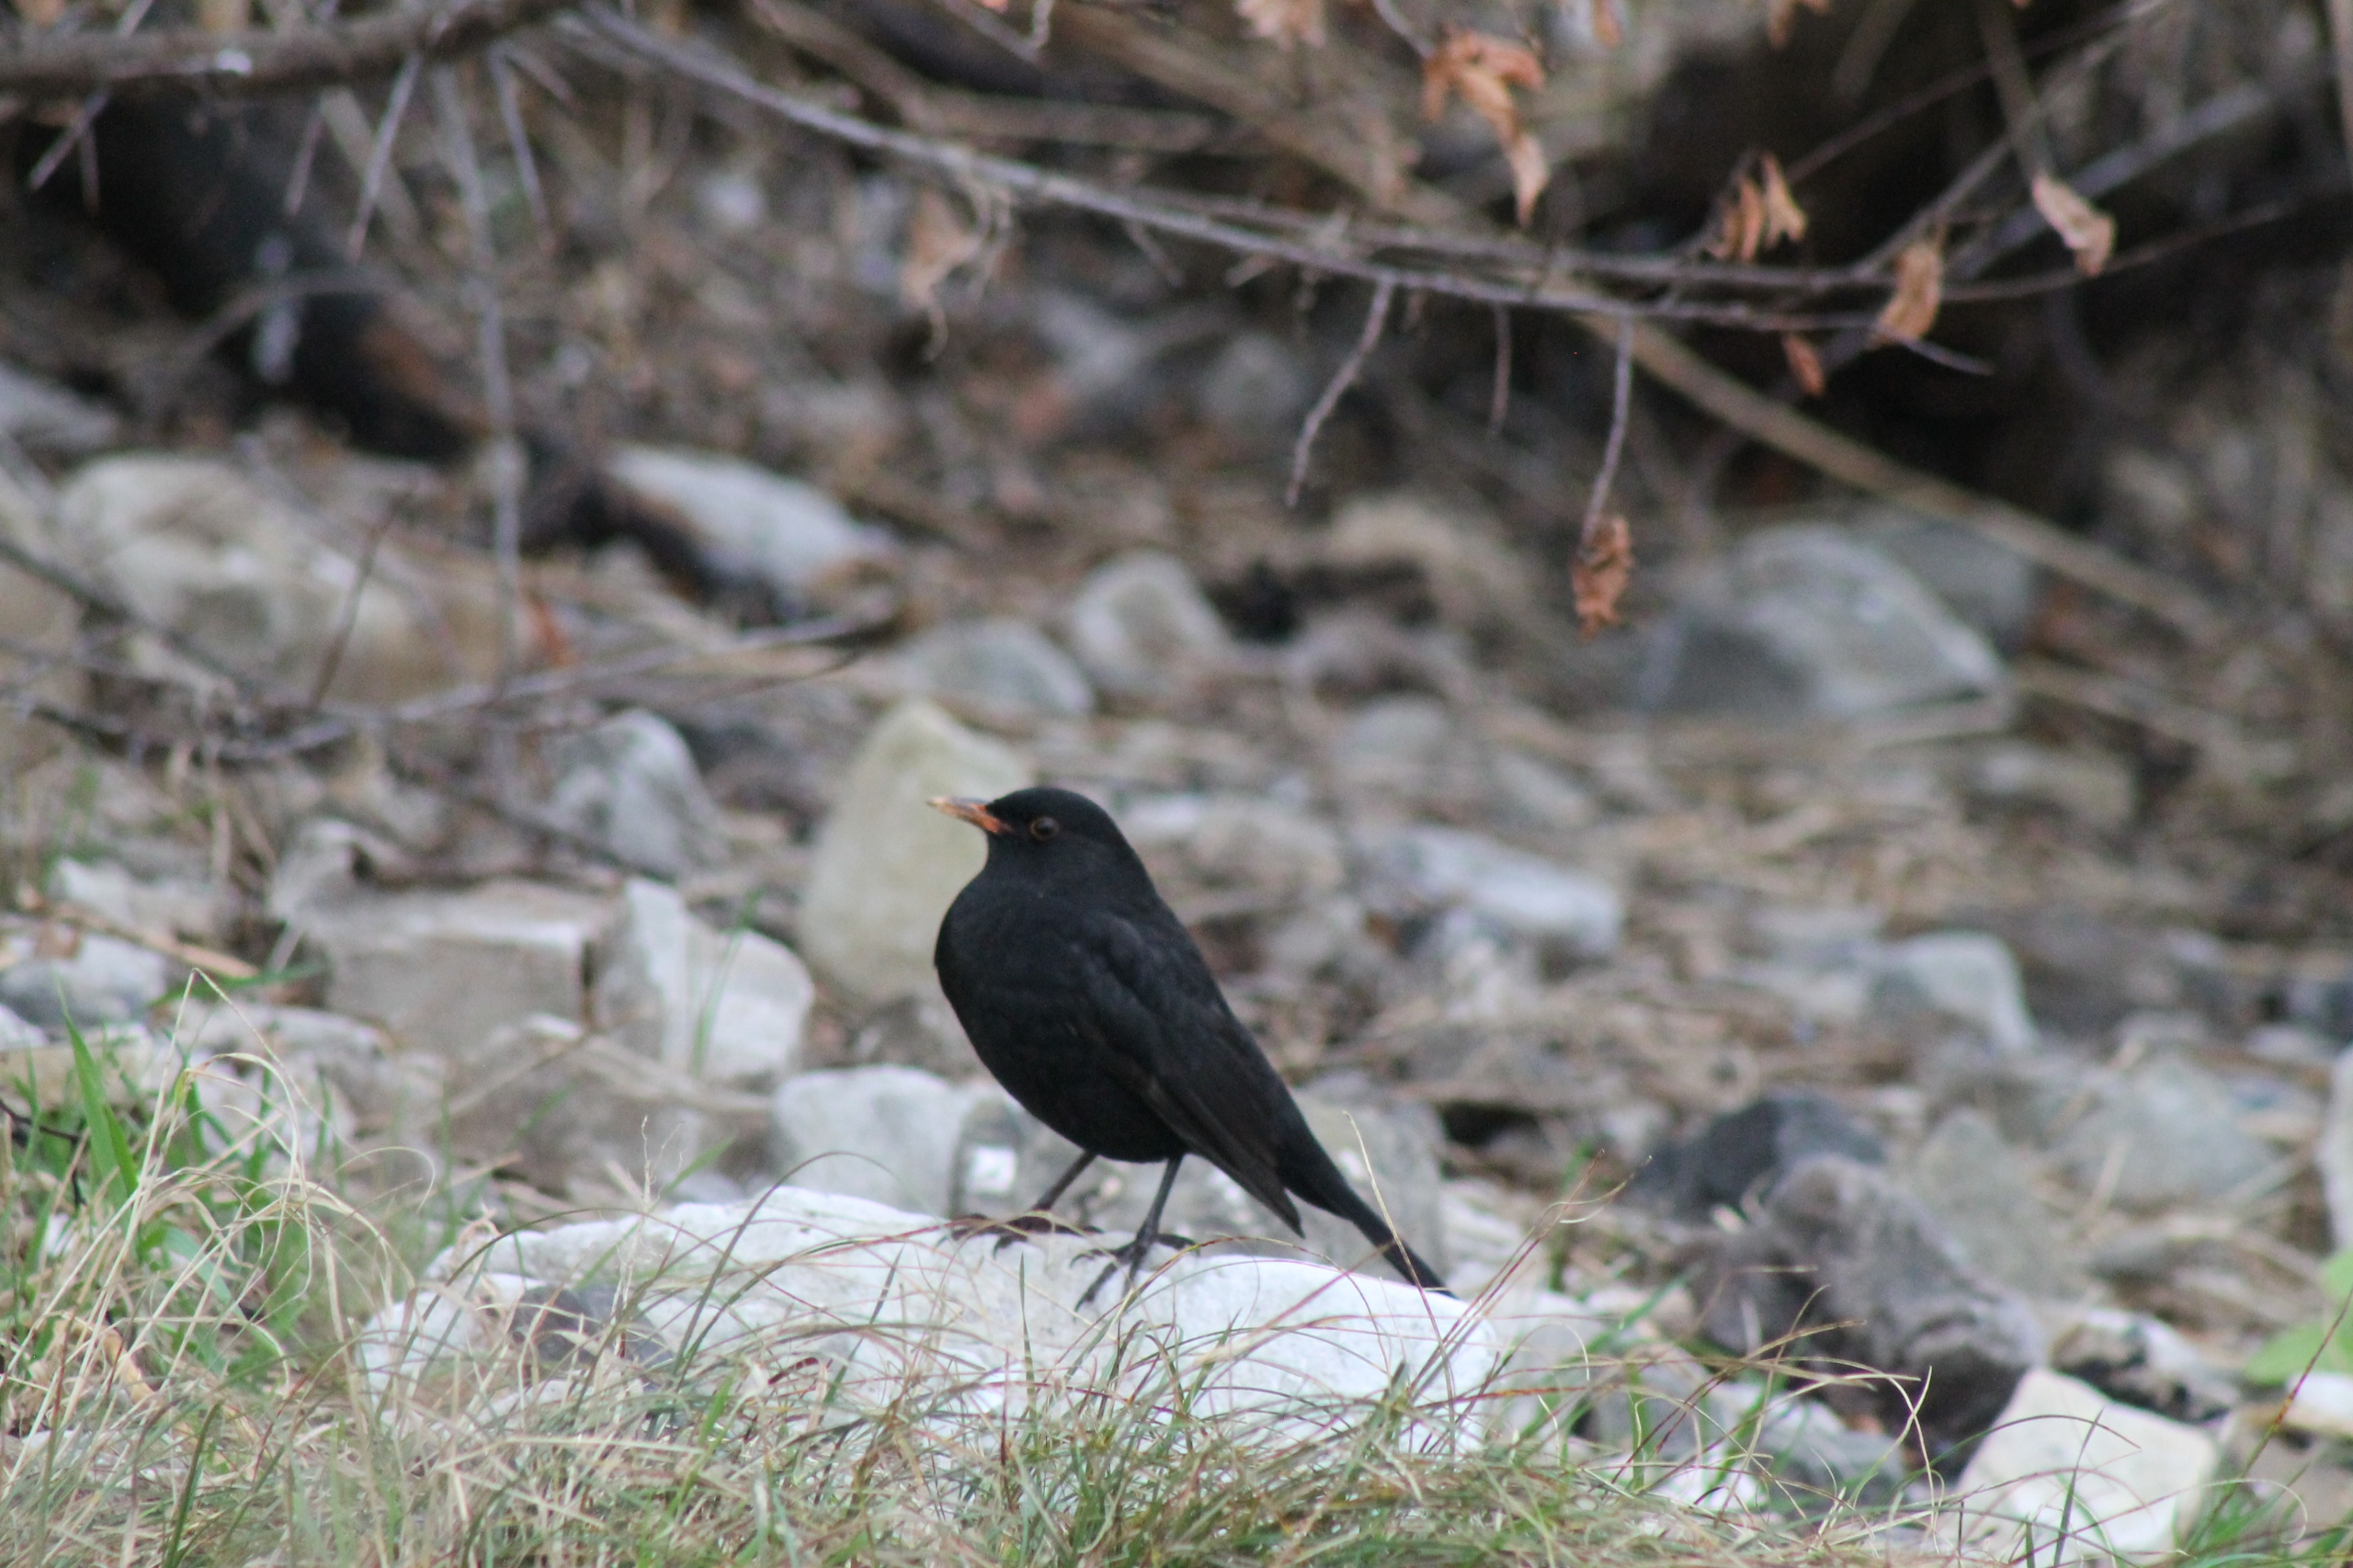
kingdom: Animalia
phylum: Chordata
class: Aves
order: Passeriformes
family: Turdidae
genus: Turdus
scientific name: Turdus merula
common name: Solsort
